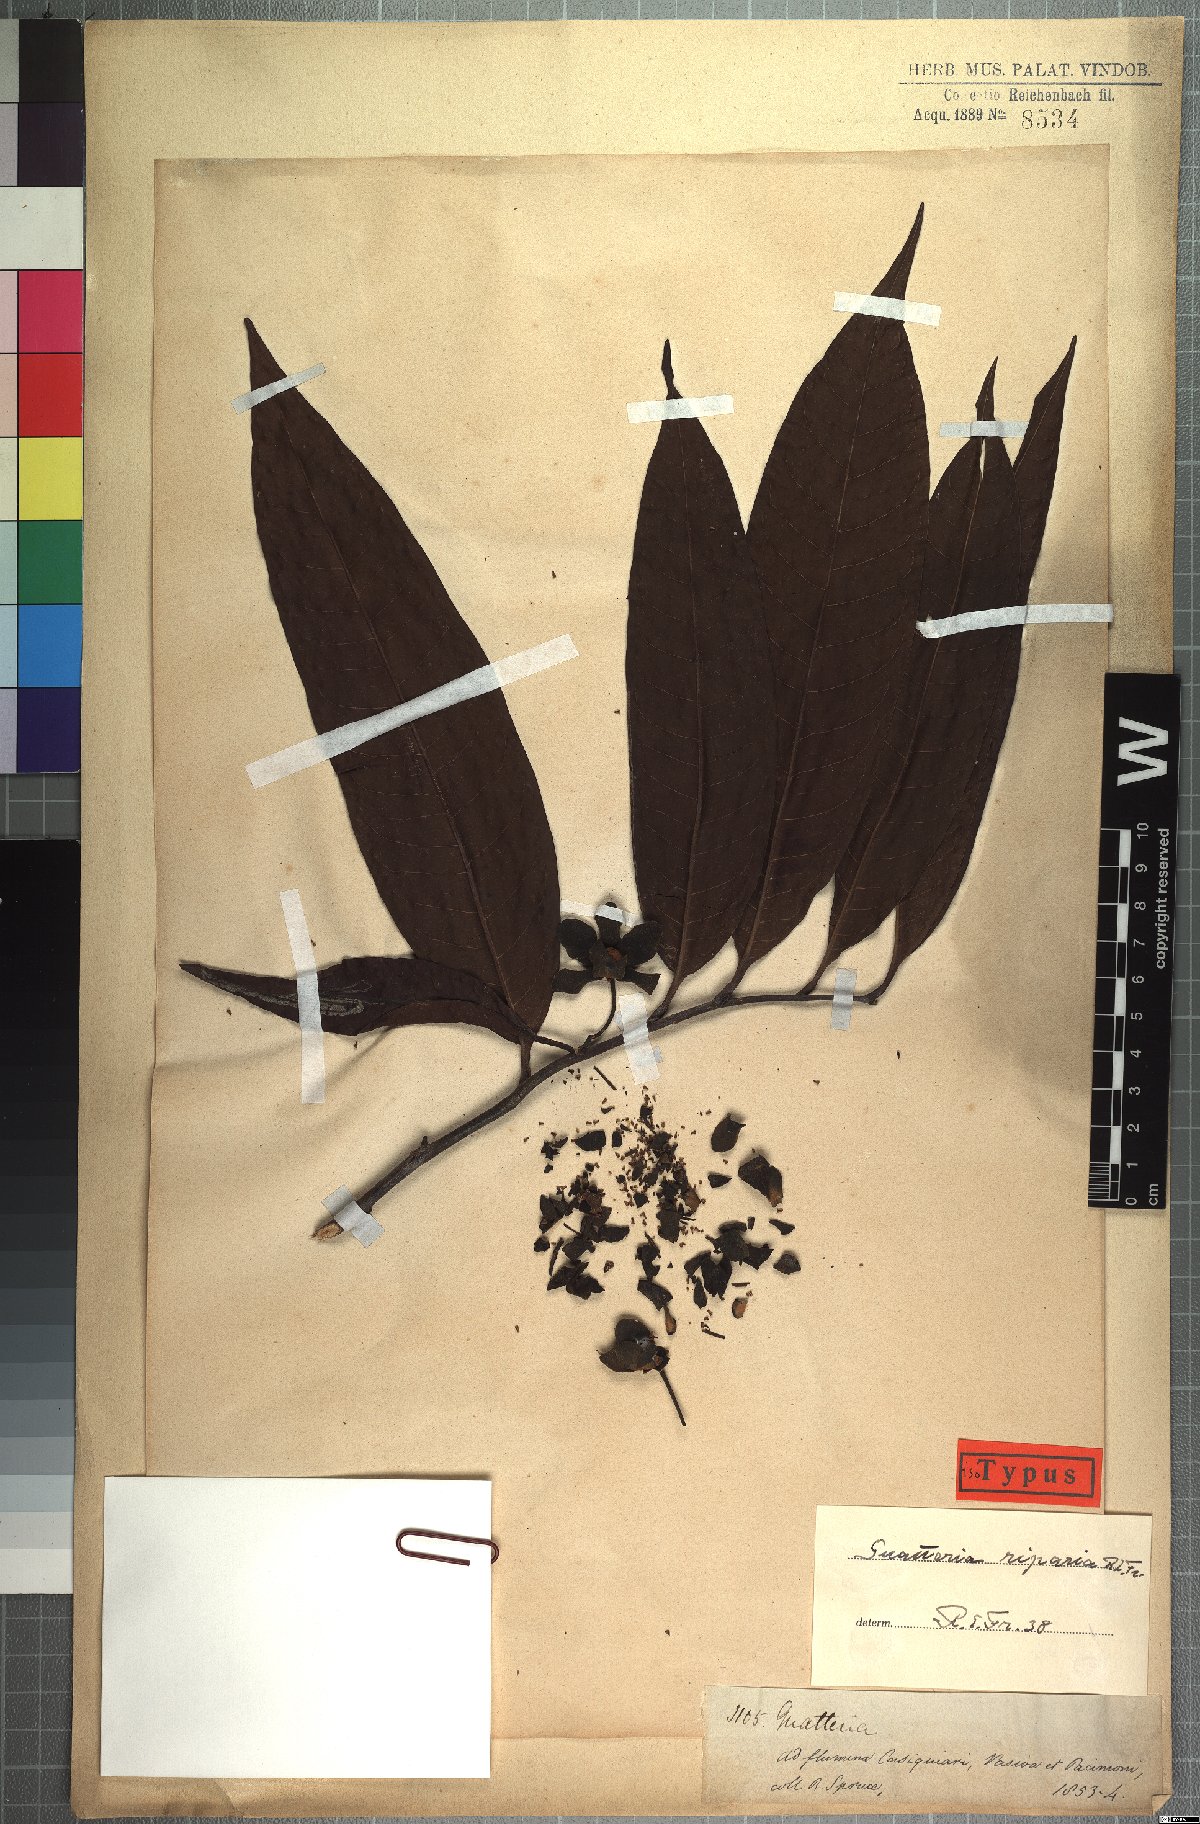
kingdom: Plantae
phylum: Tracheophyta
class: Magnoliopsida
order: Magnoliales
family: Annonaceae
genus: Guatteria
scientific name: Guatteria riparia
